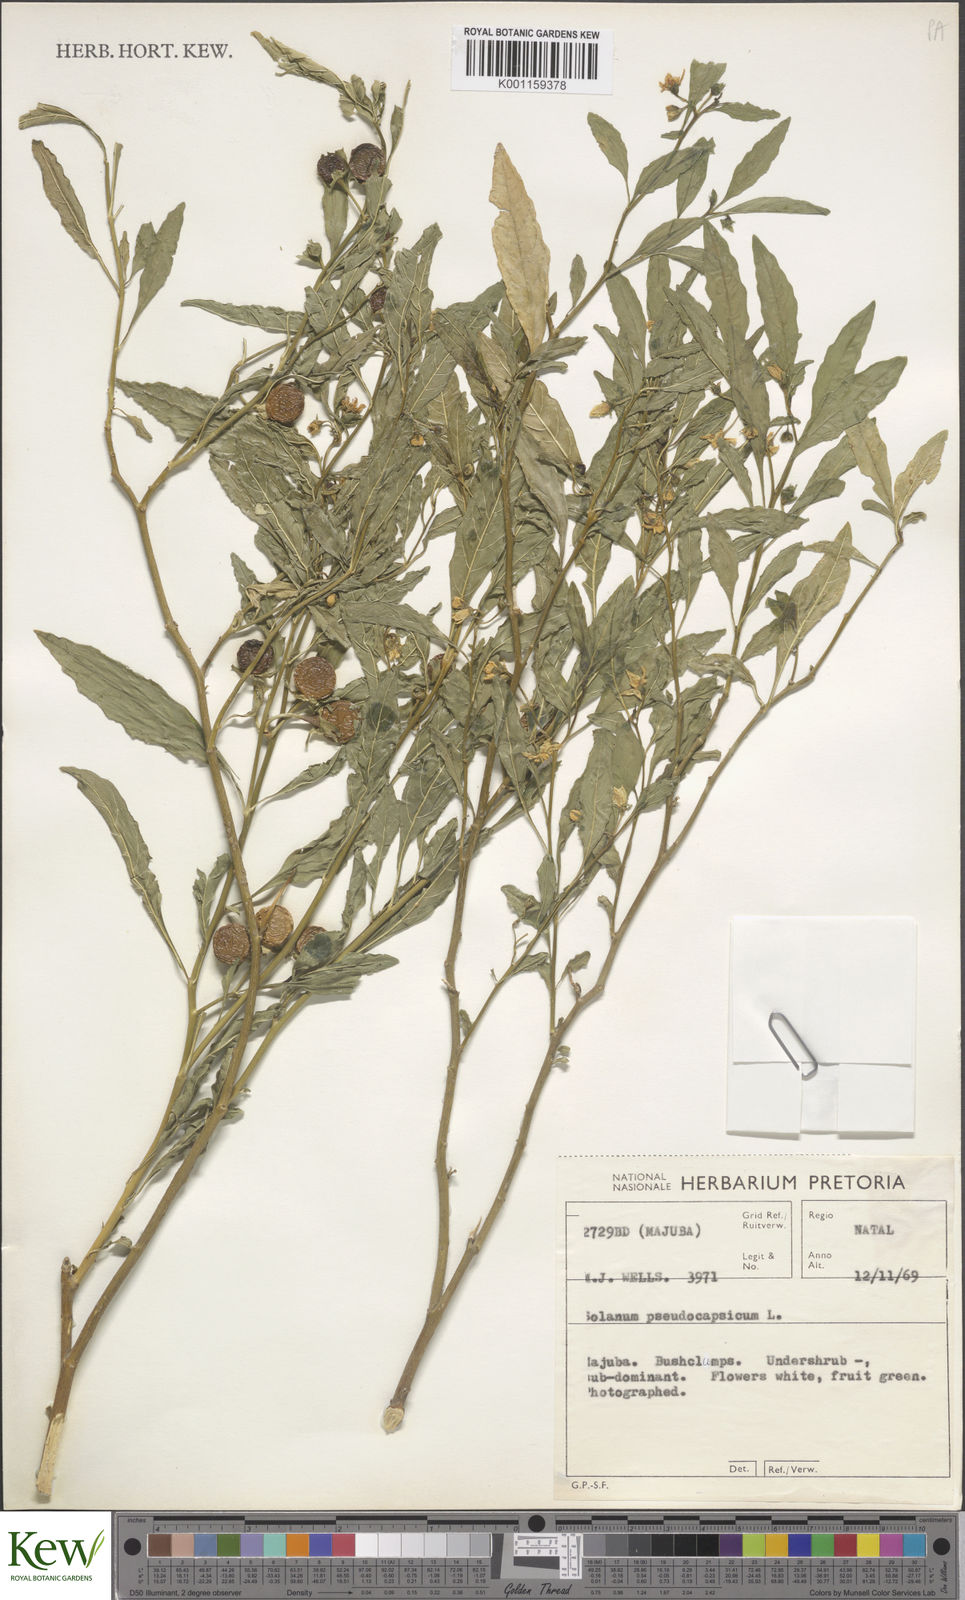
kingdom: Plantae
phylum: Tracheophyta
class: Magnoliopsida
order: Solanales
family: Solanaceae
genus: Solanum
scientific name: Solanum pseudocapsicum
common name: Jerusalem cherry
